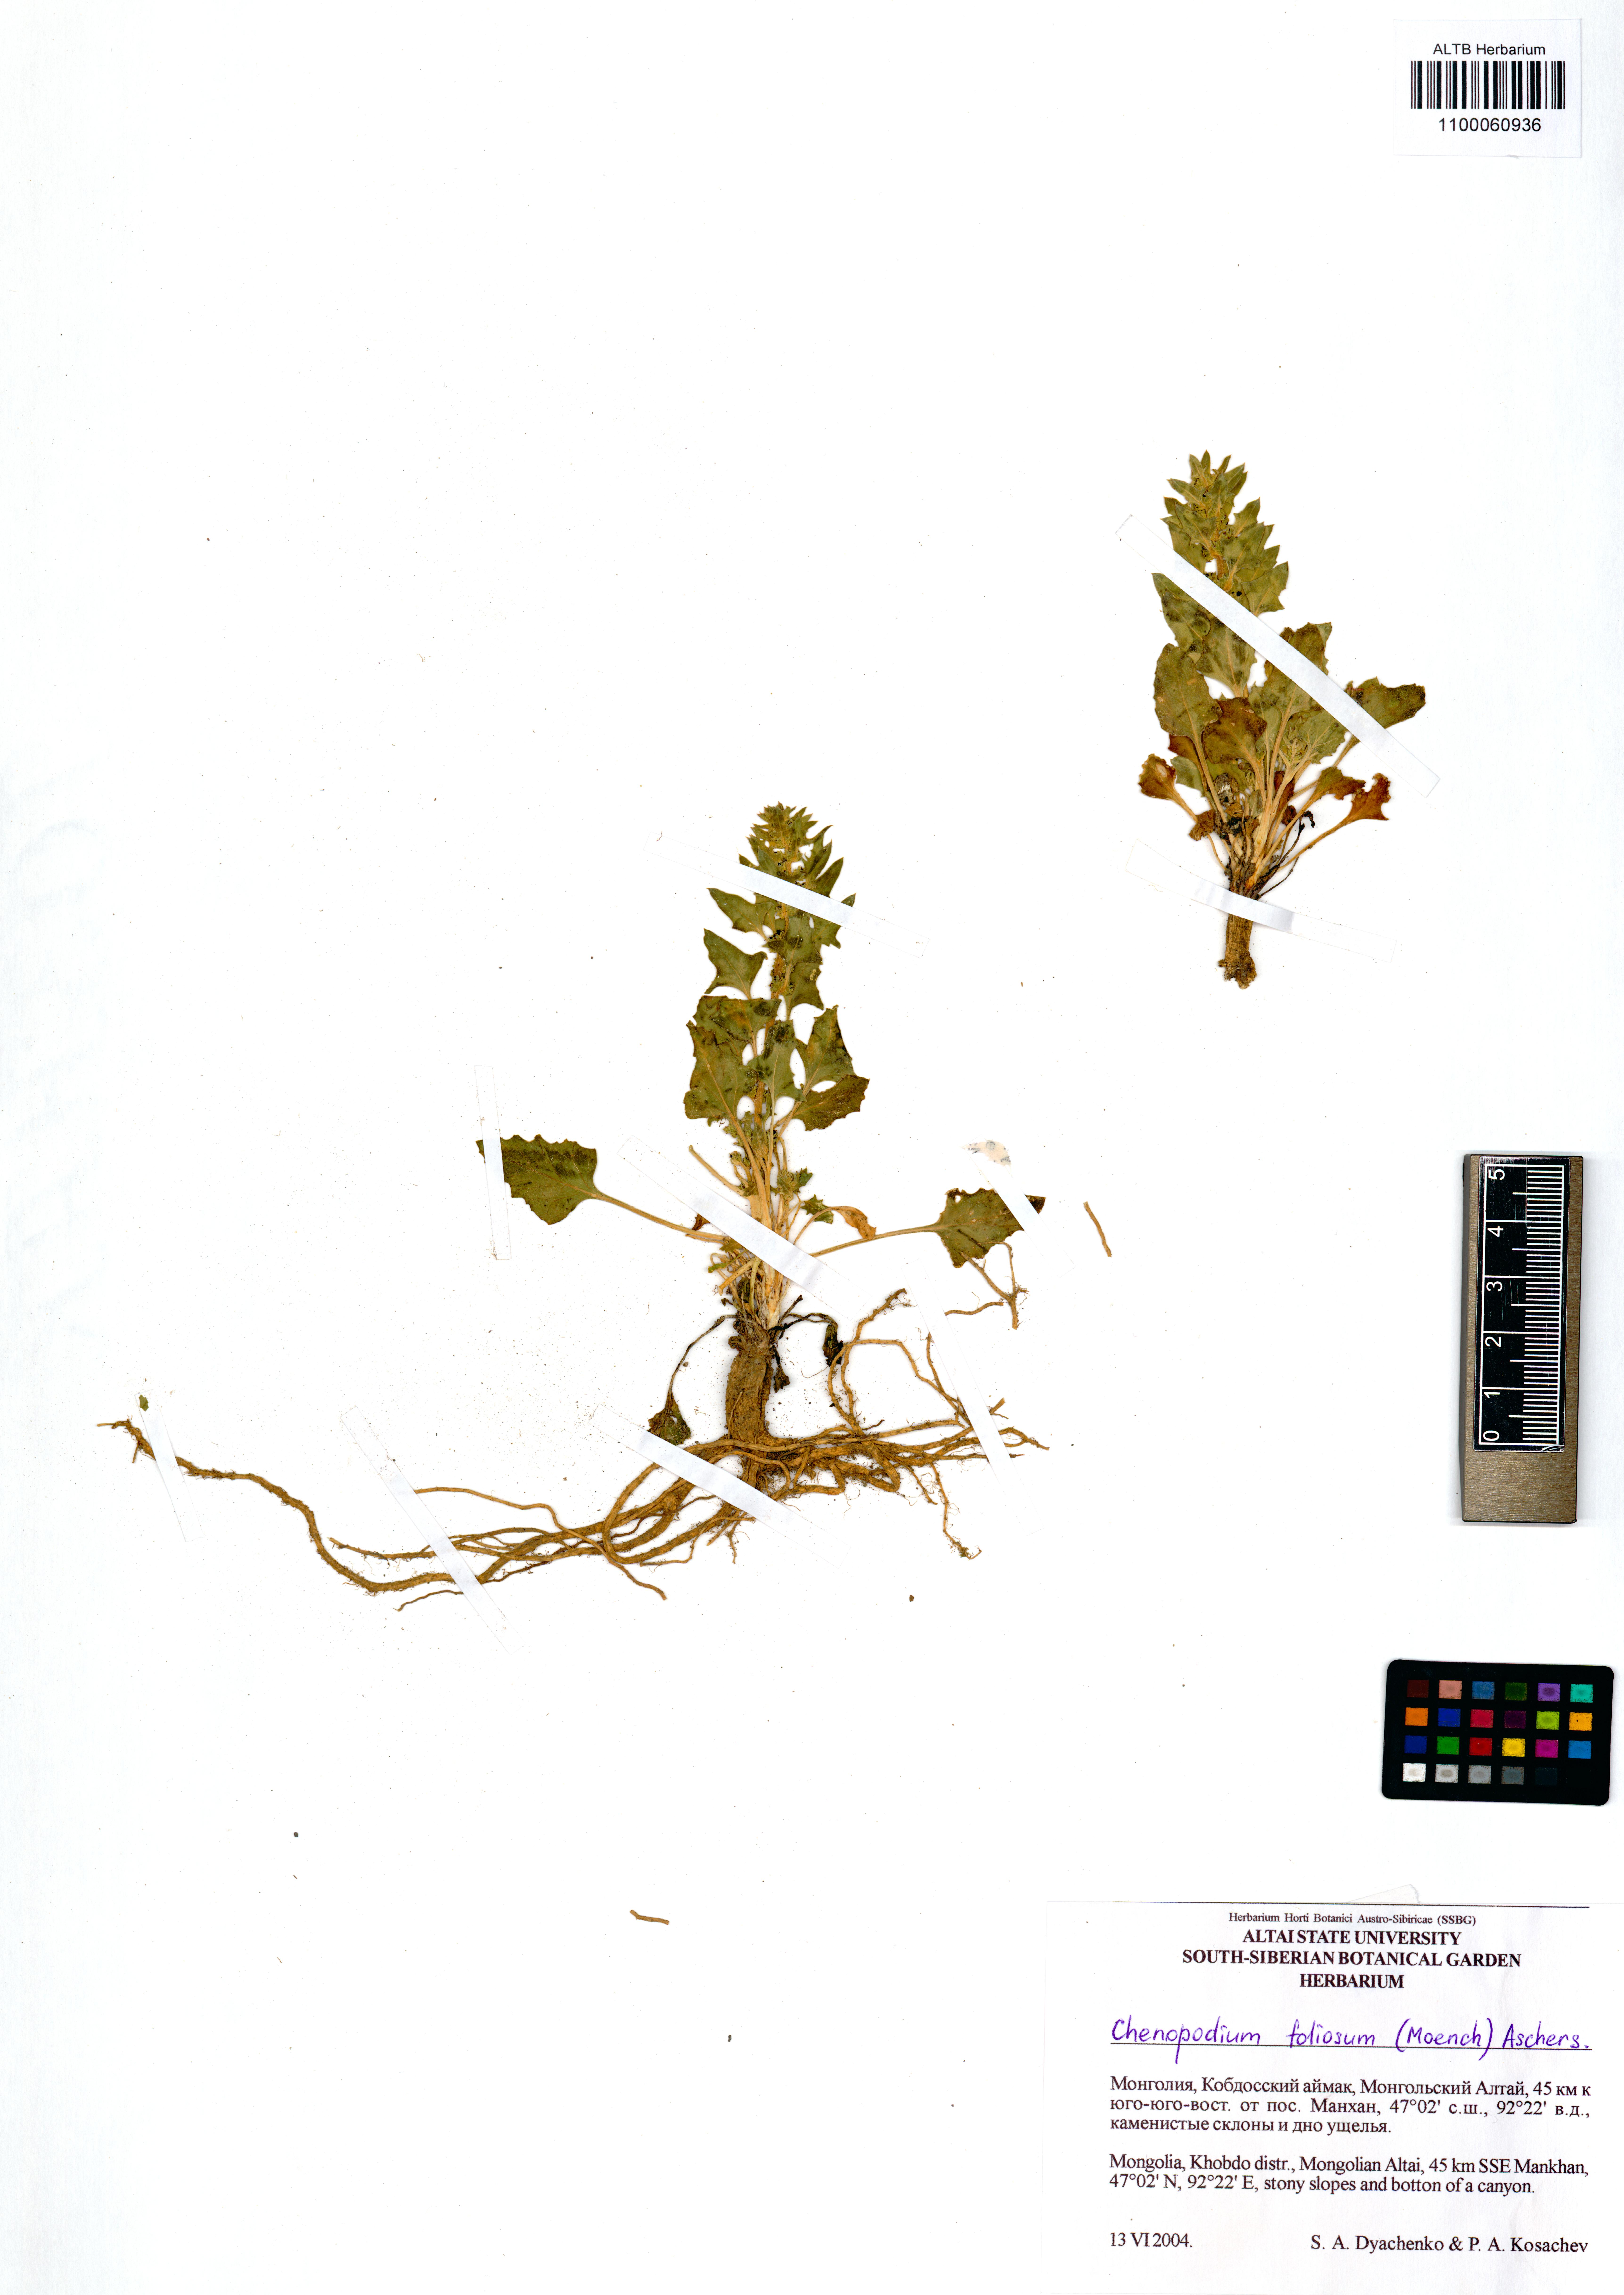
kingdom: Plantae
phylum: Tracheophyta
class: Magnoliopsida
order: Caryophyllales
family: Amaranthaceae
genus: Blitum
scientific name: Blitum virgatum
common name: Strawberry goosefoot
